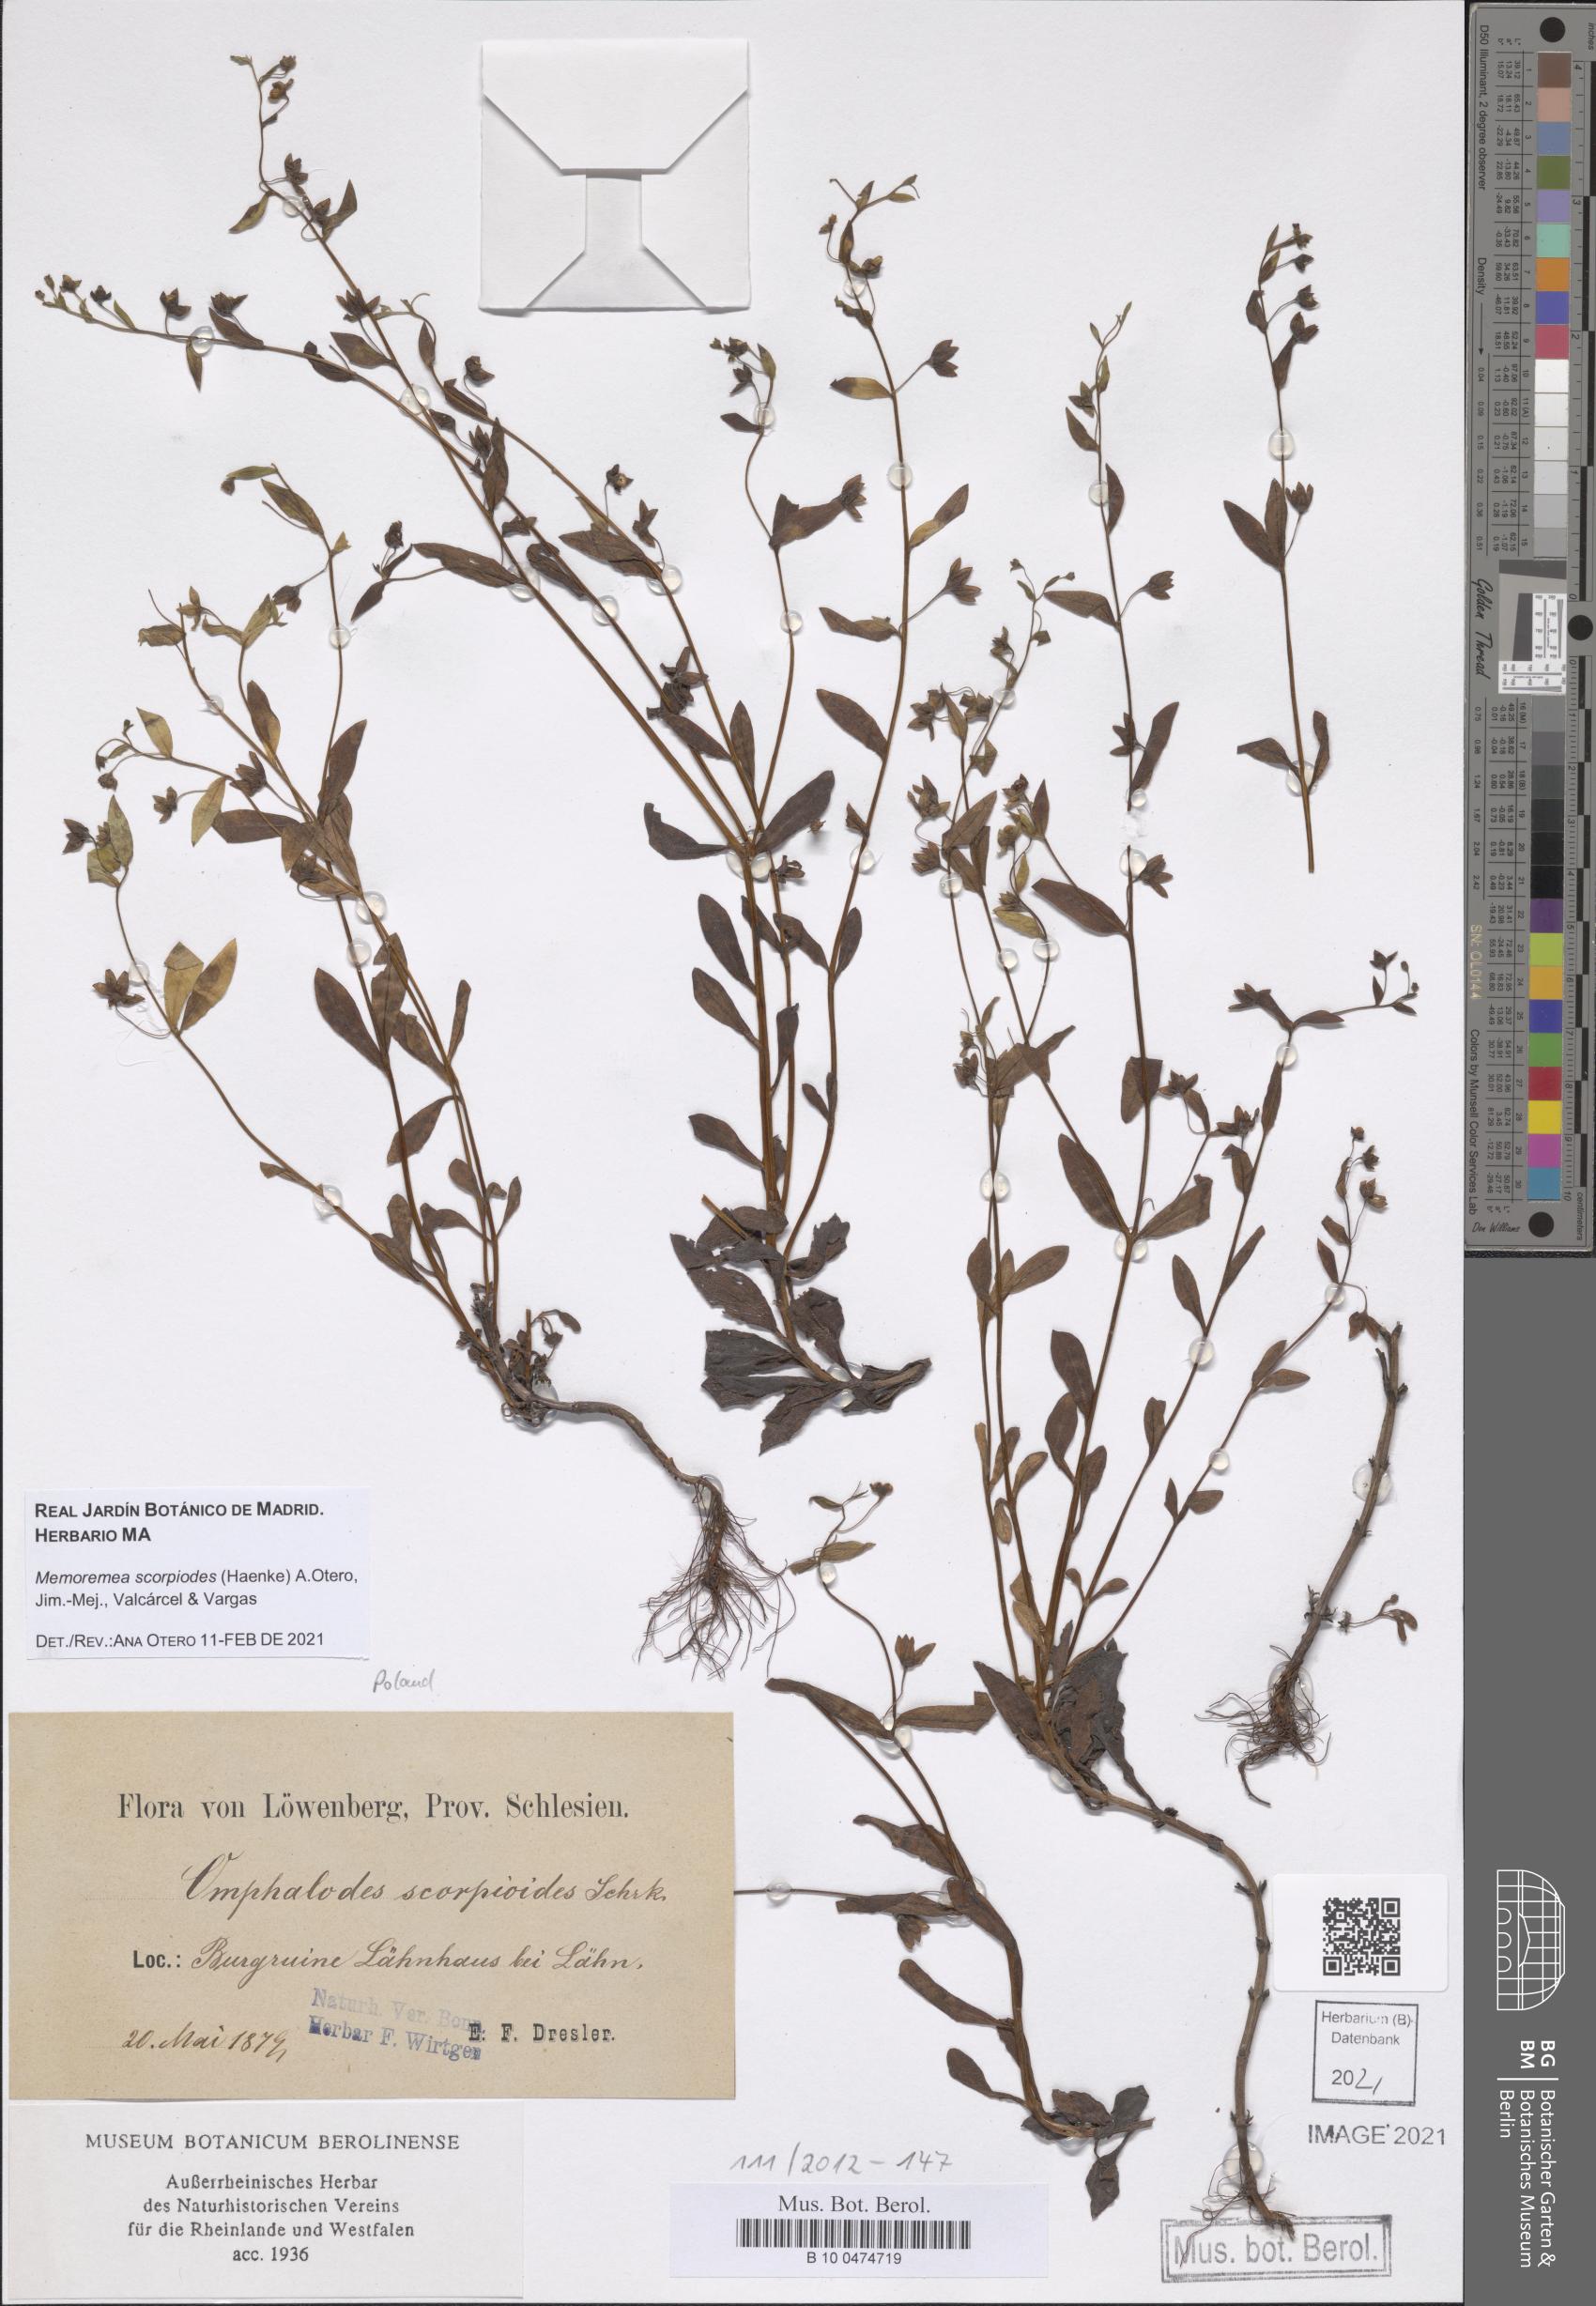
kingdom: Plantae
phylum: Tracheophyta
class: Magnoliopsida
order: Boraginales
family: Boraginaceae
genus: Memoremea
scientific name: Memoremea scorpioides
